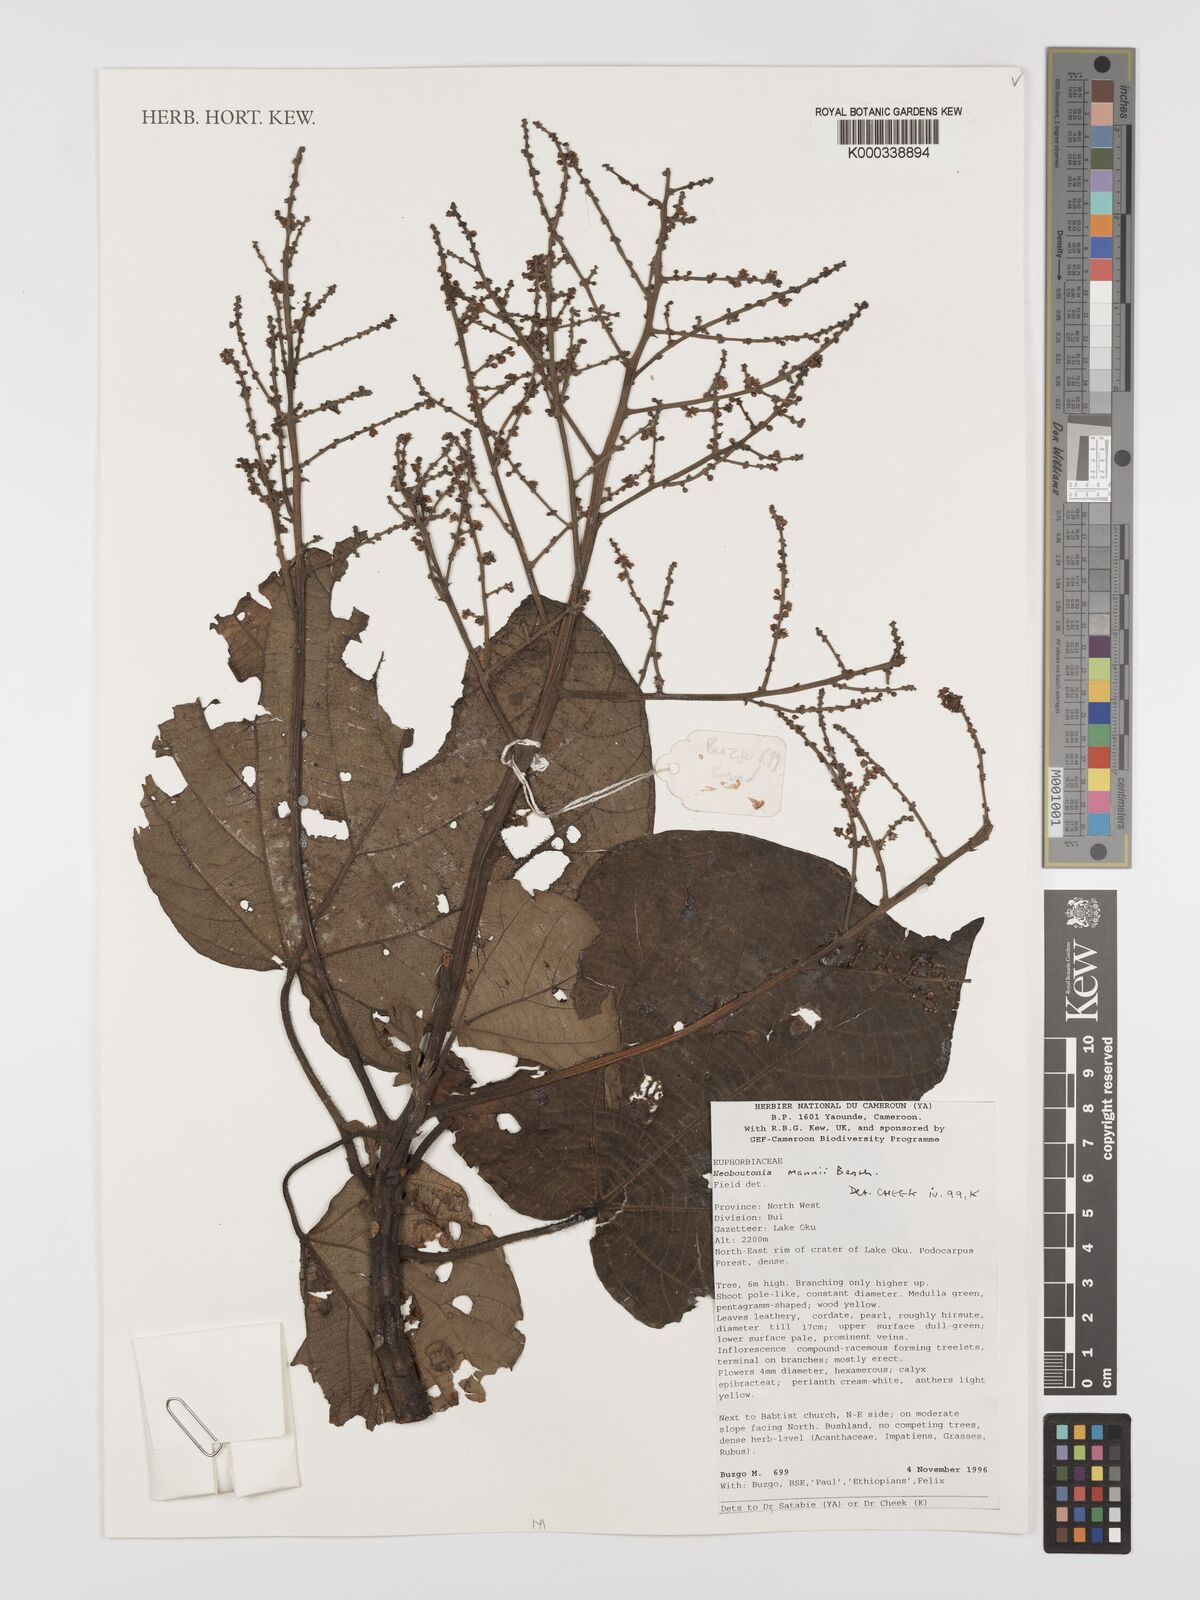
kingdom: Plantae
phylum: Tracheophyta
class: Magnoliopsida
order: Malpighiales
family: Euphorbiaceae
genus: Neoboutonia
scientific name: Neoboutonia mannii
